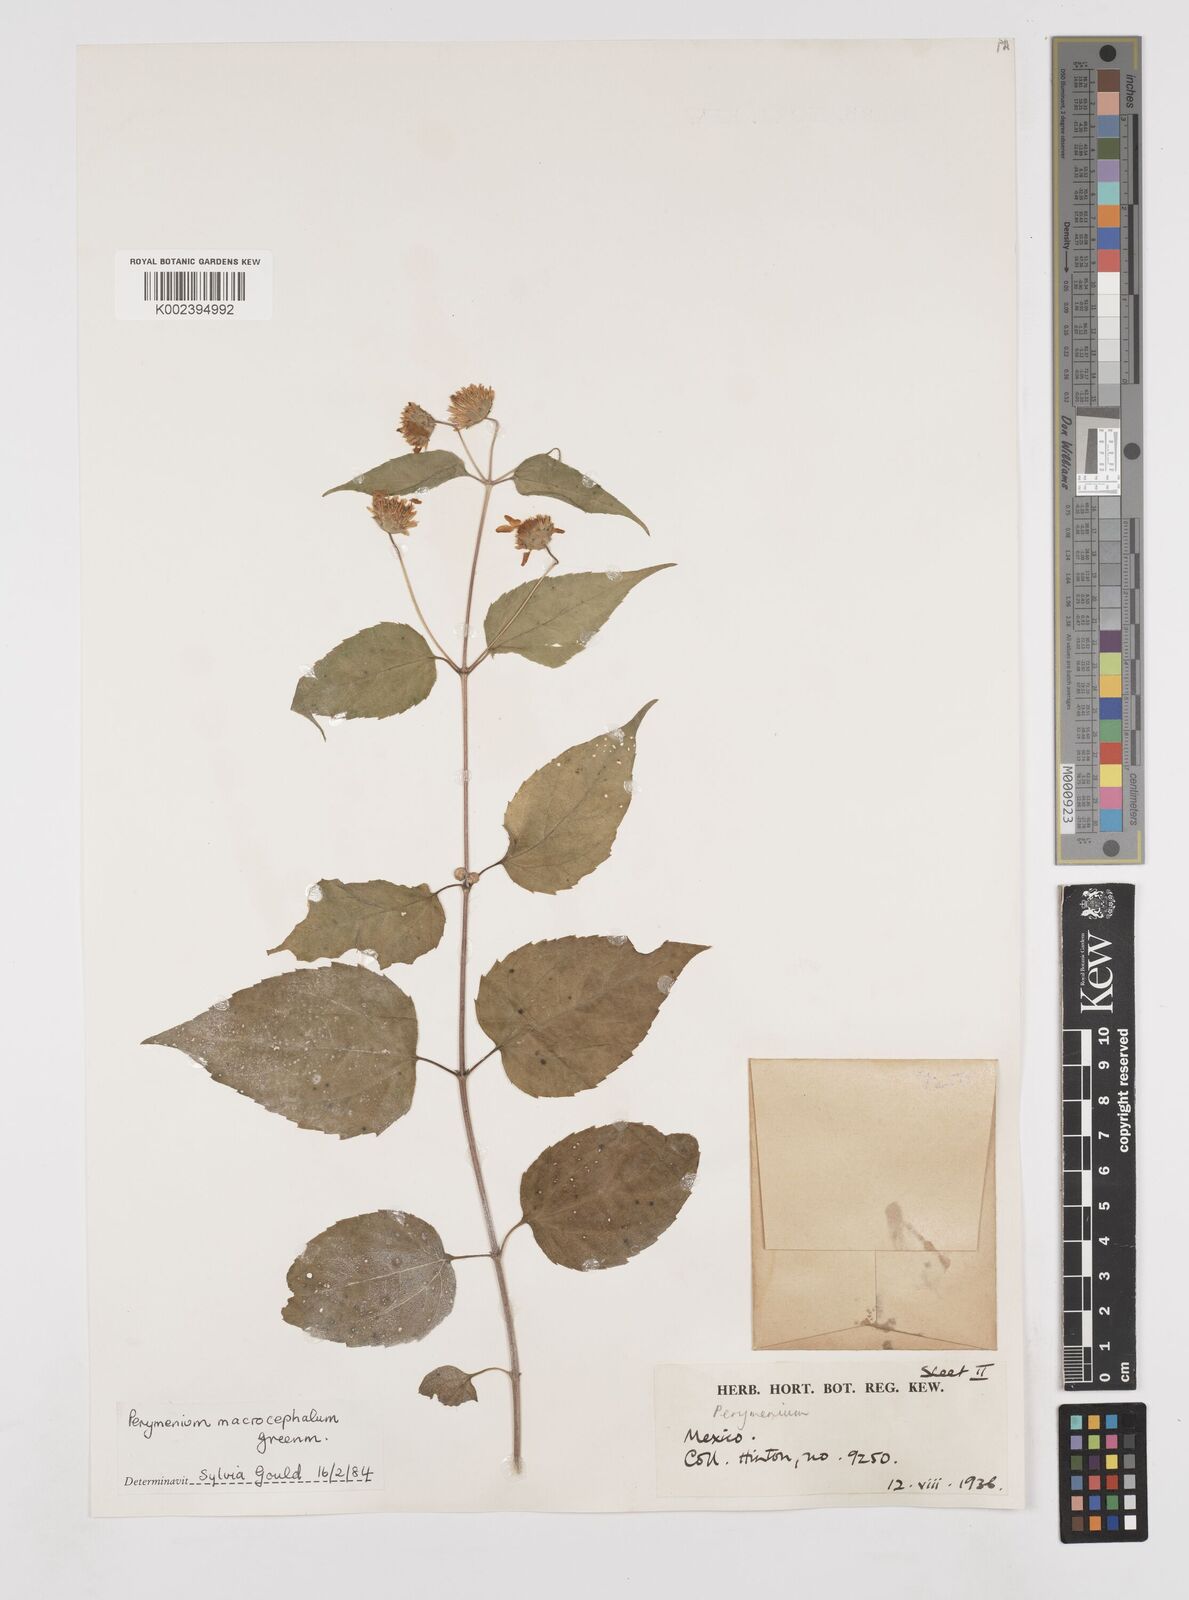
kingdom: Plantae
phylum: Tracheophyta
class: Magnoliopsida
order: Asterales
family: Asteraceae
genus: Perymenium
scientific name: Perymenium macrocephalum
